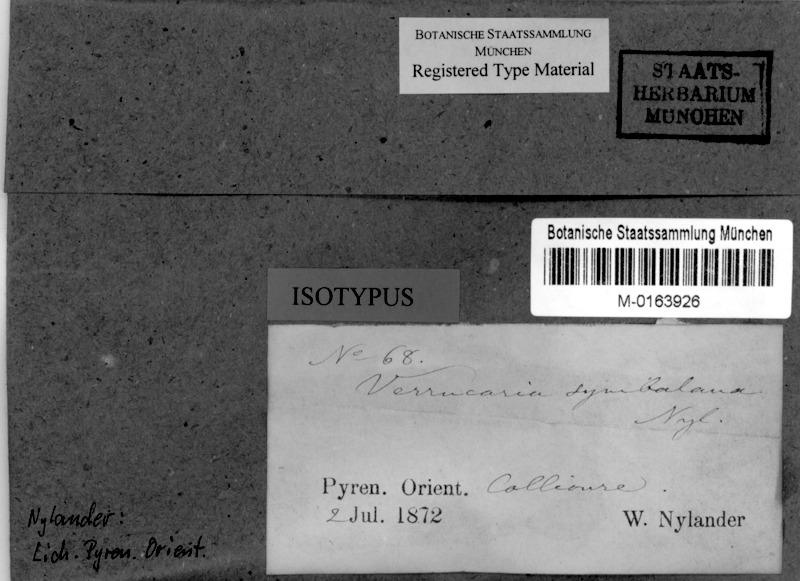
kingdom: Fungi
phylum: Ascomycota
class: Eurotiomycetes
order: Verrucariales
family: Verrucariaceae
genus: Hydropunctaria
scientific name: Hydropunctaria symbalana
